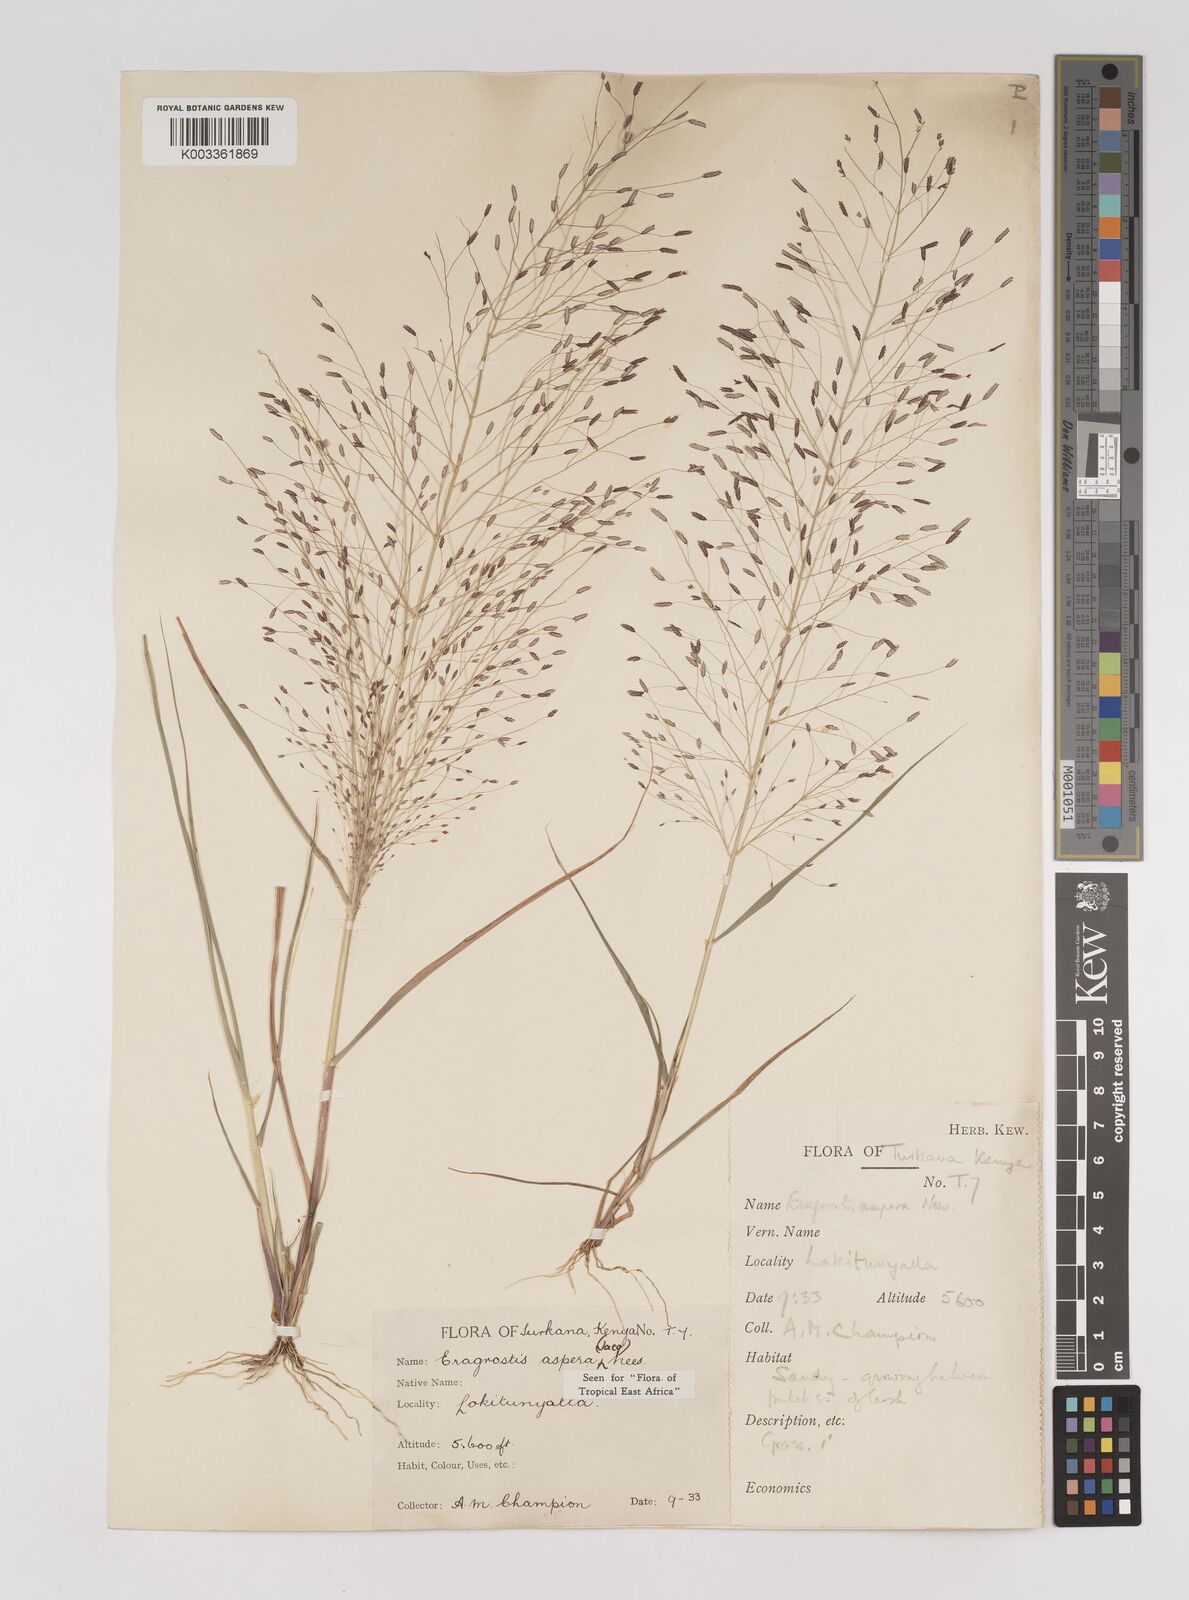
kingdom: Plantae
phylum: Tracheophyta
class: Liliopsida
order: Poales
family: Poaceae
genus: Eragrostis
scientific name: Eragrostis aspera
